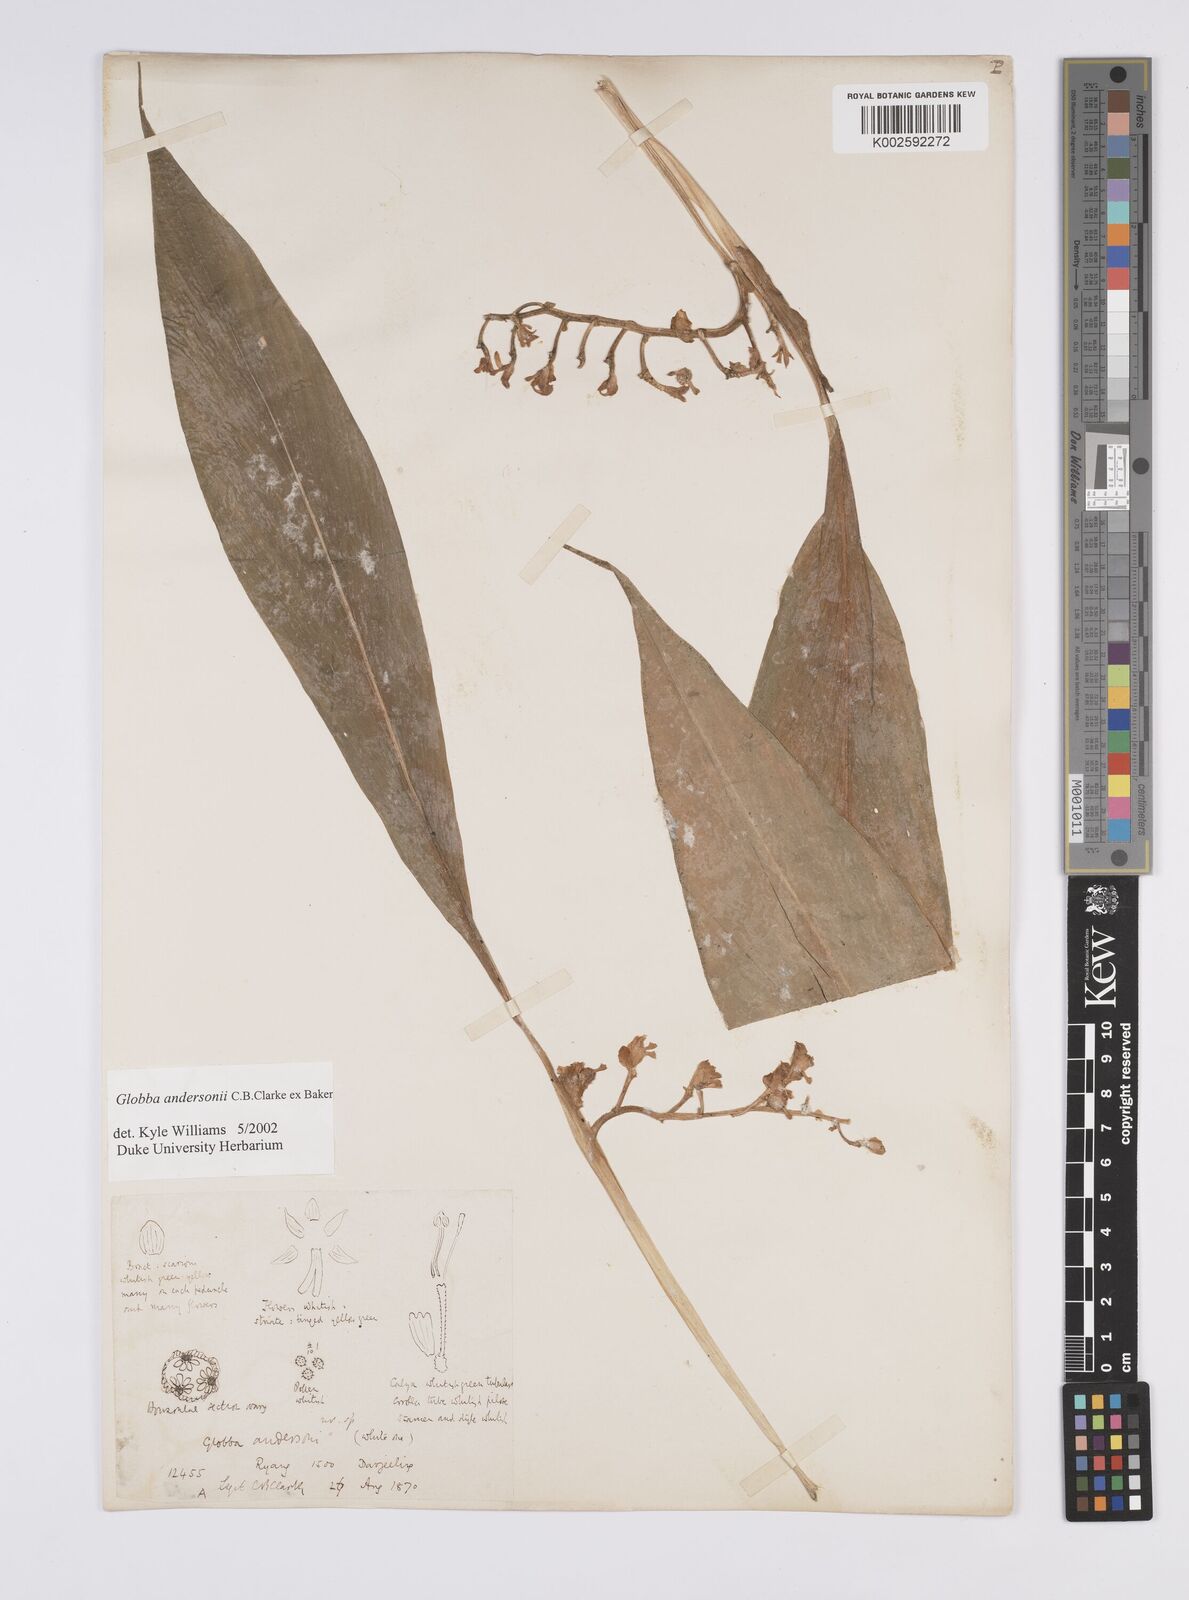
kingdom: Plantae
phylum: Tracheophyta
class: Liliopsida
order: Zingiberales
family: Zingiberaceae
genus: Globba
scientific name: Globba andersonii
